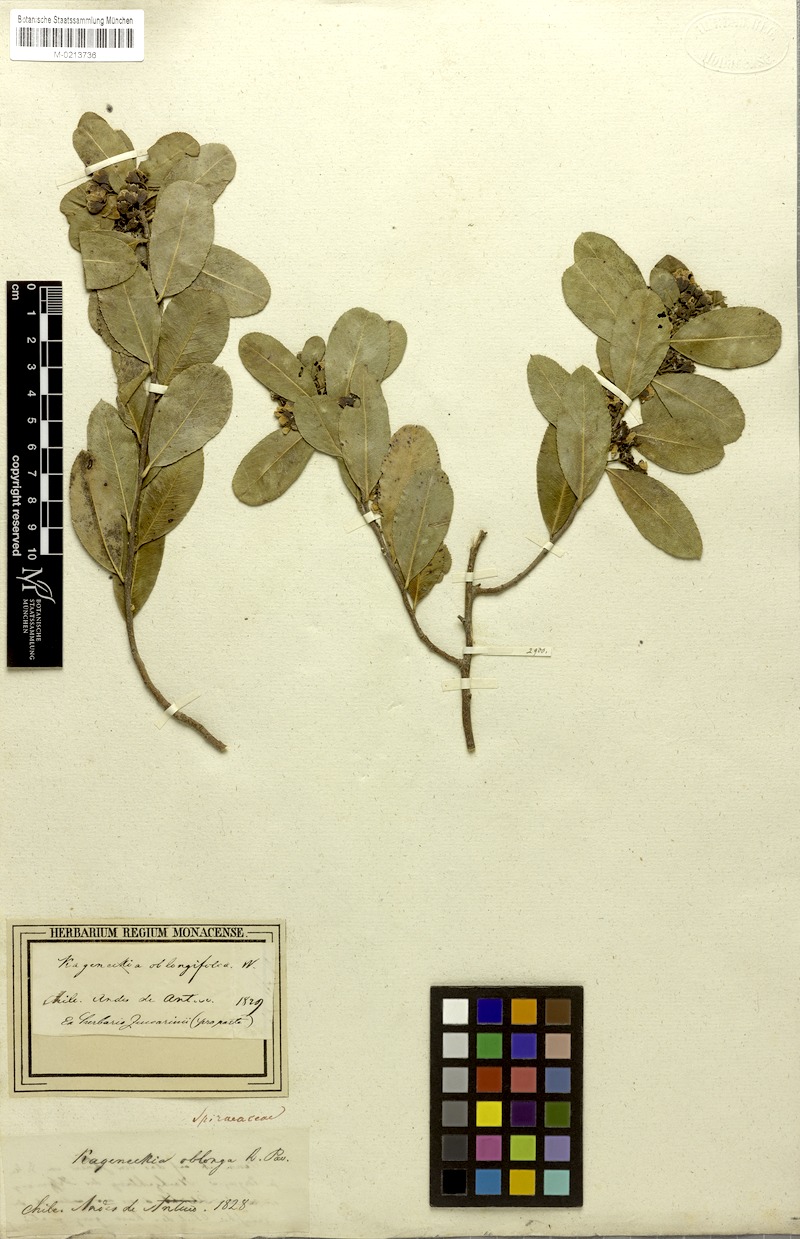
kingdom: Plantae
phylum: Tracheophyta
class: Magnoliopsida
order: Rosales
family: Rosaceae
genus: Kageneckia
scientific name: Kageneckia oblonga
